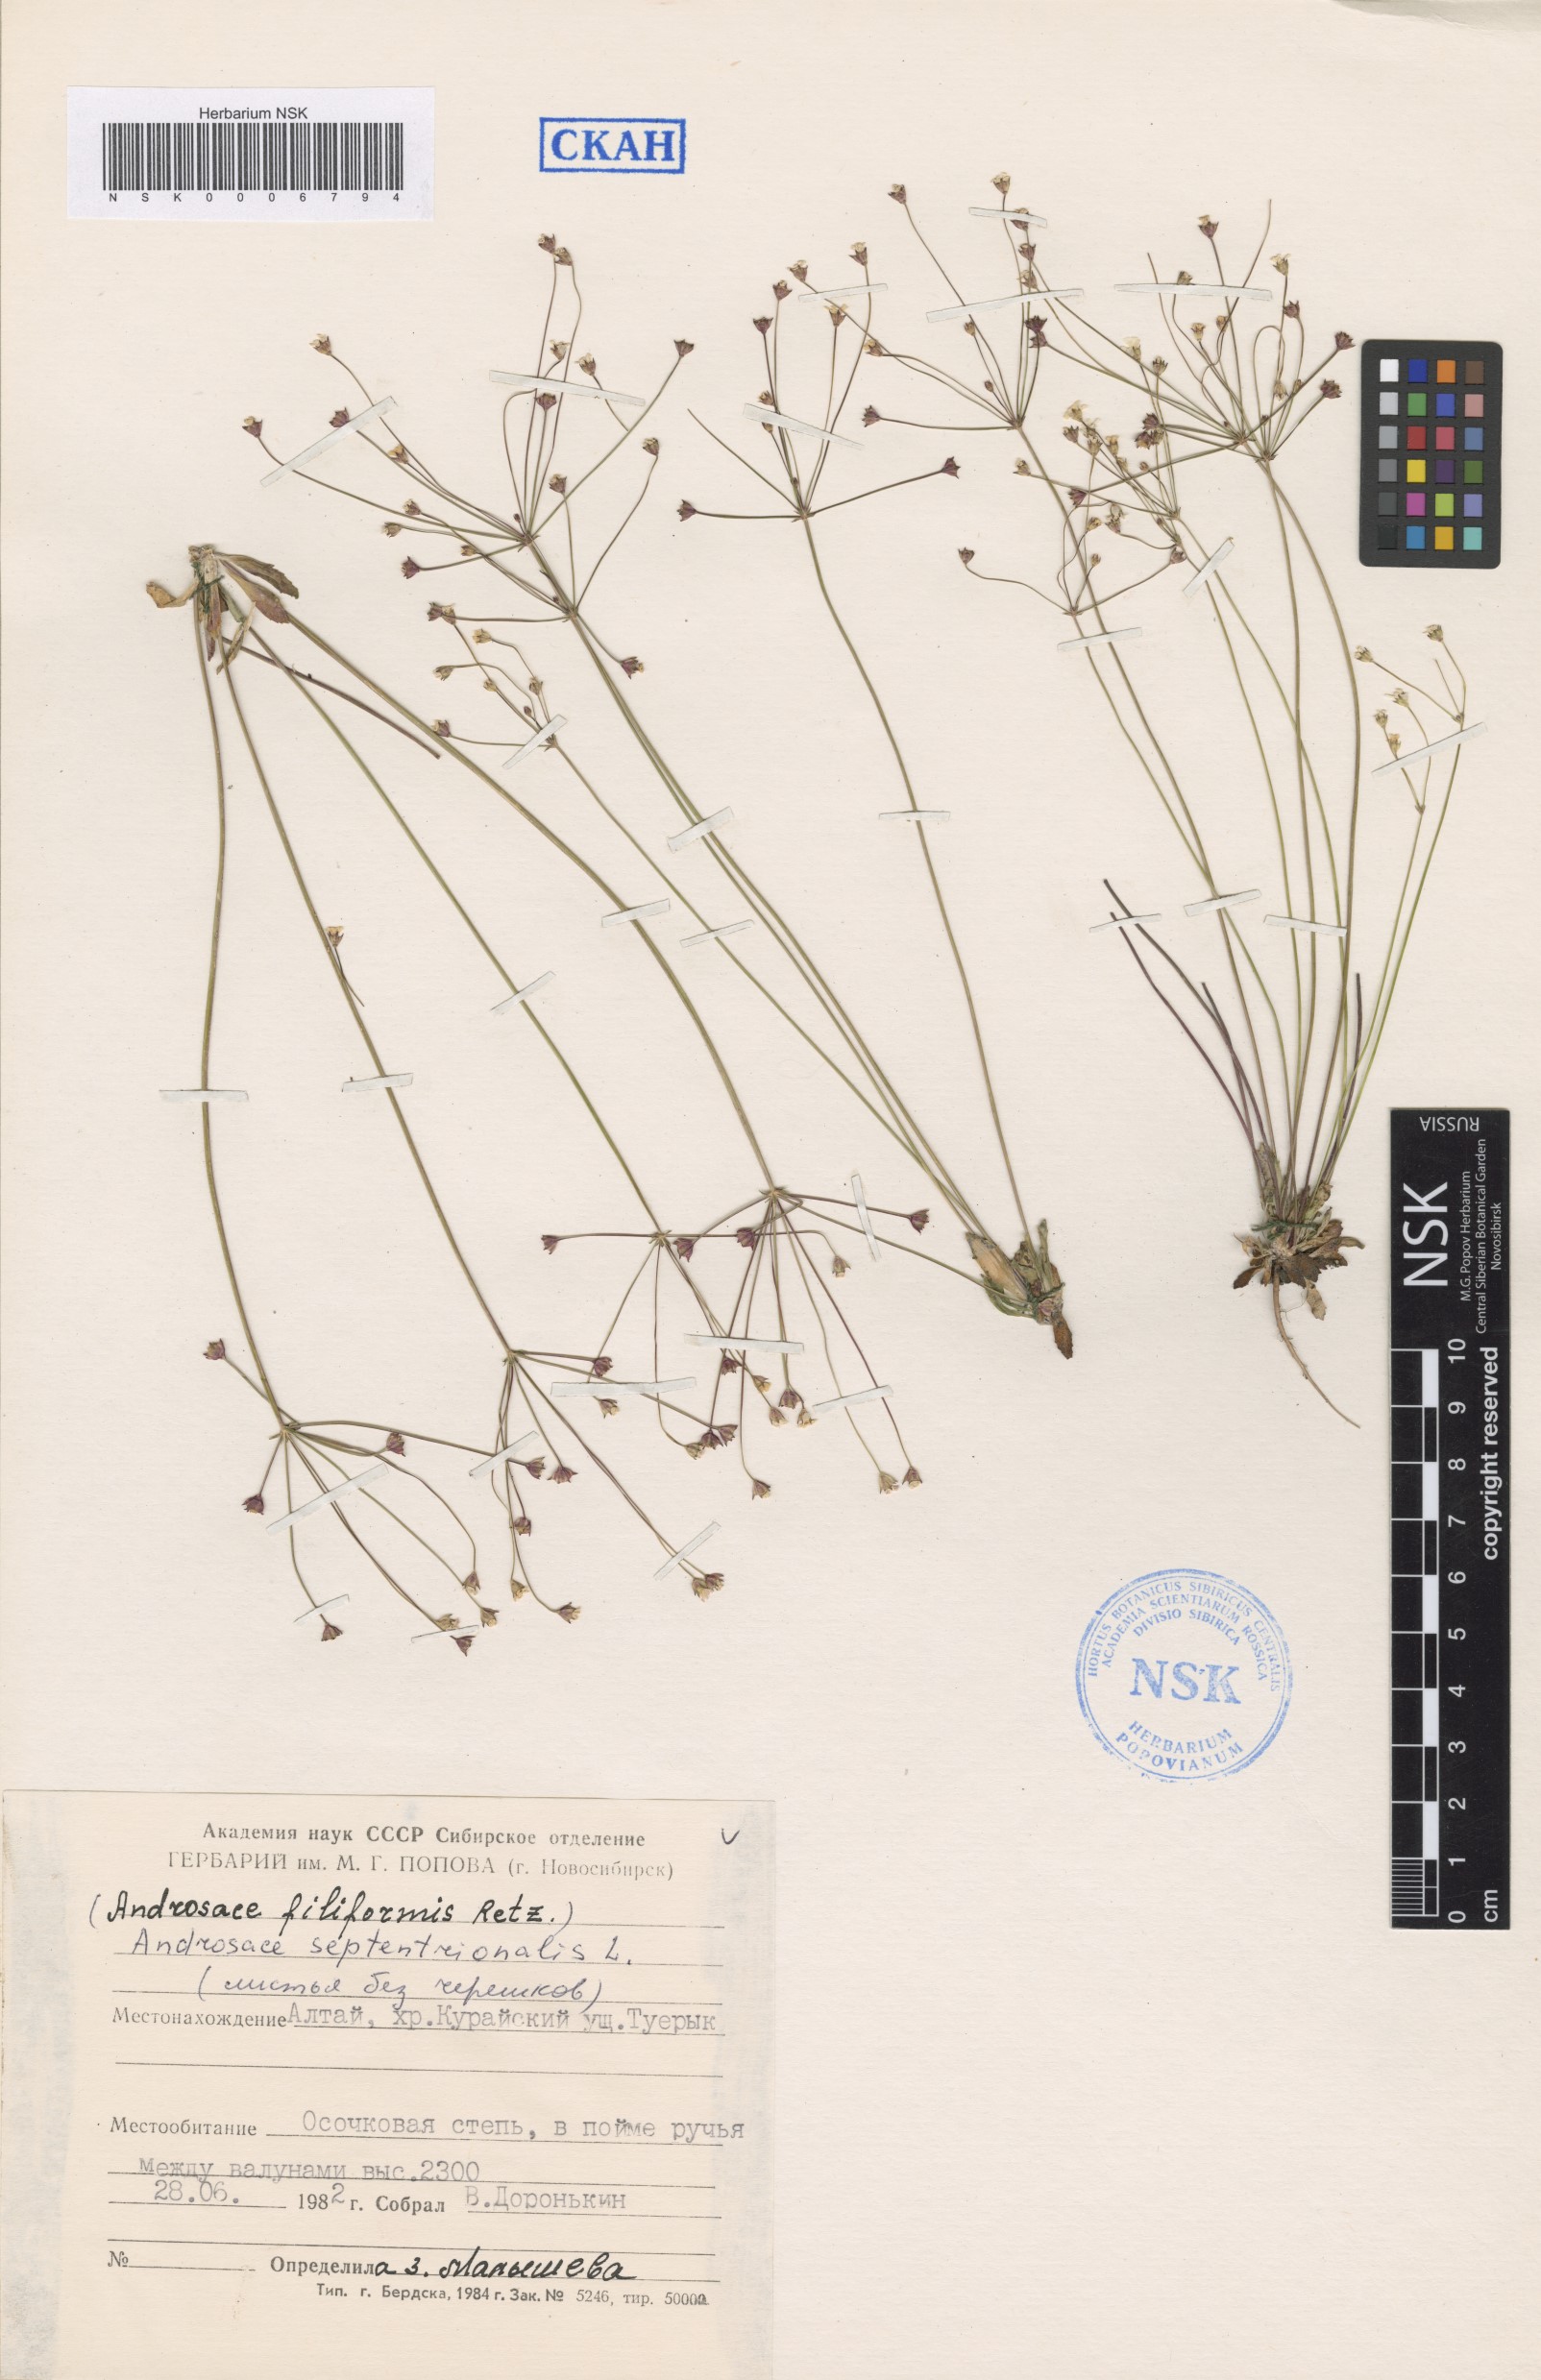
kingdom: Plantae
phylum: Tracheophyta
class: Magnoliopsida
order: Ericales
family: Primulaceae
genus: Androsace
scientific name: Androsace septentrionalis
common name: Hairy northern fairy-candelabra
